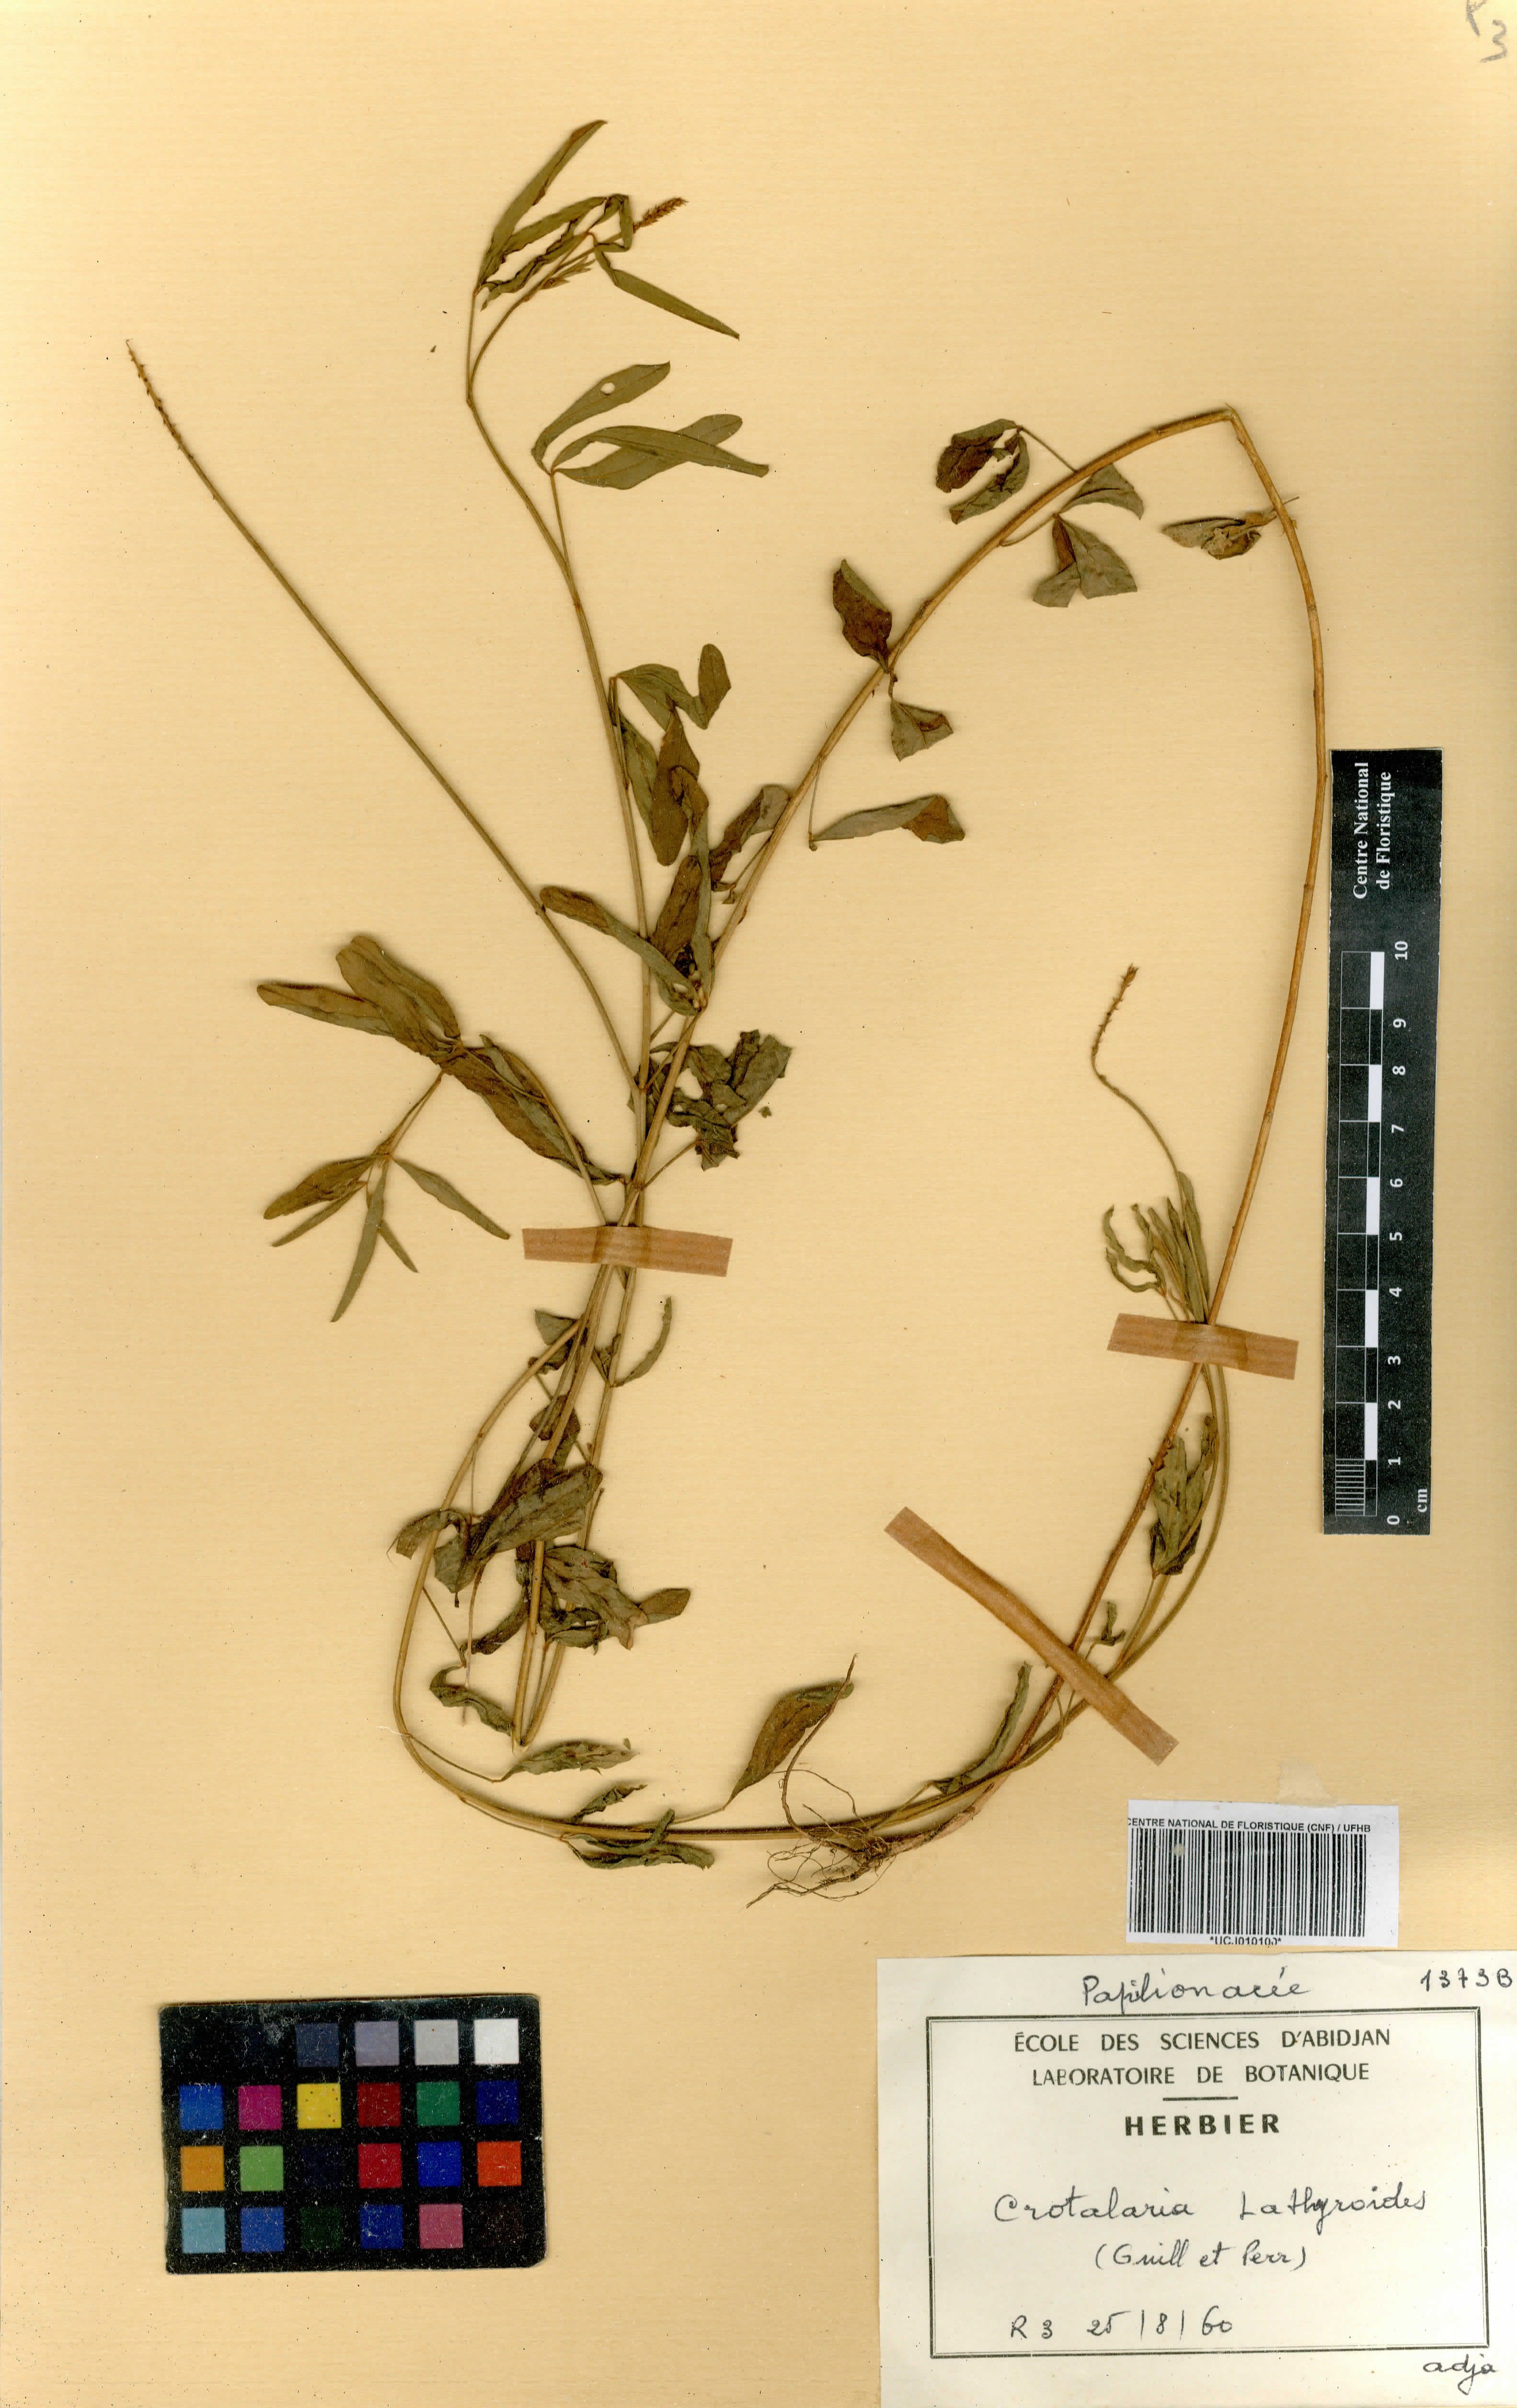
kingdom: Plantae
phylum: Tracheophyta
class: Magnoliopsida
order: Fabales
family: Fabaceae
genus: Crotalaria
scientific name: Crotalaria lathyroides
